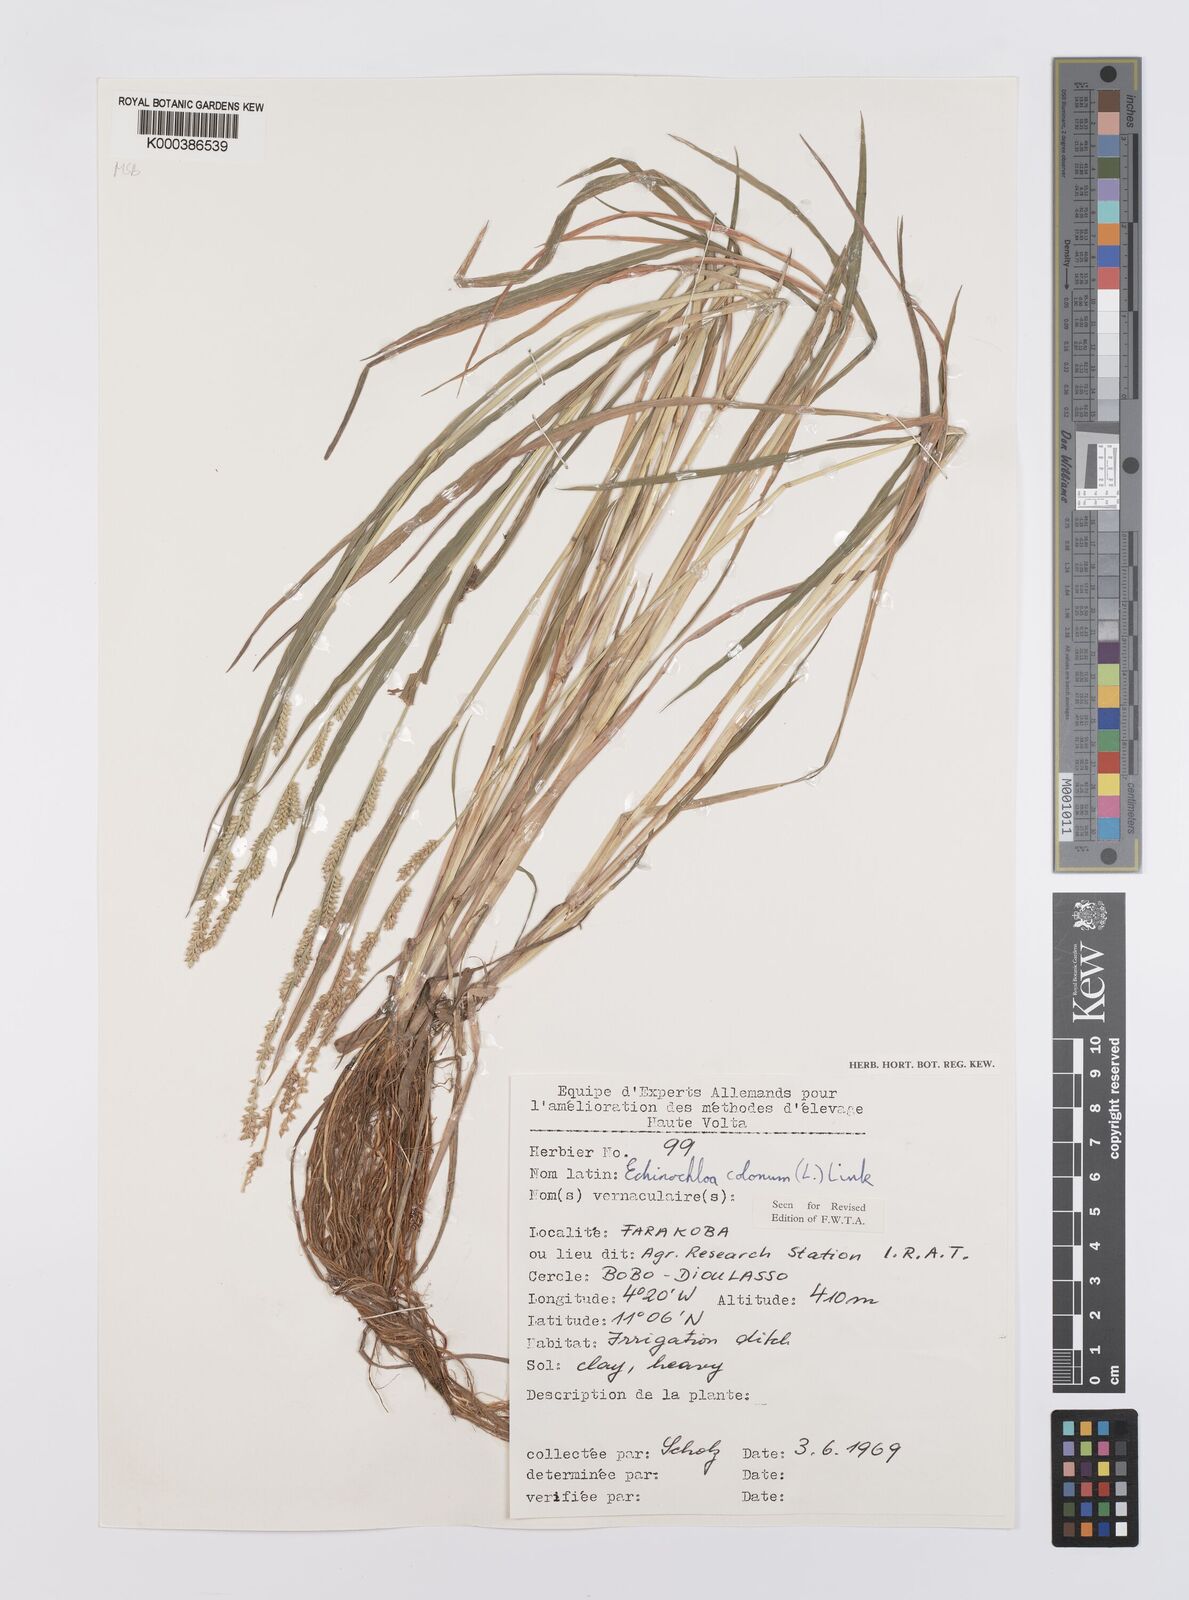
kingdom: Plantae
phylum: Tracheophyta
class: Liliopsida
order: Poales
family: Poaceae
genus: Echinochloa
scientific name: Echinochloa colonum
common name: Jungle rice
